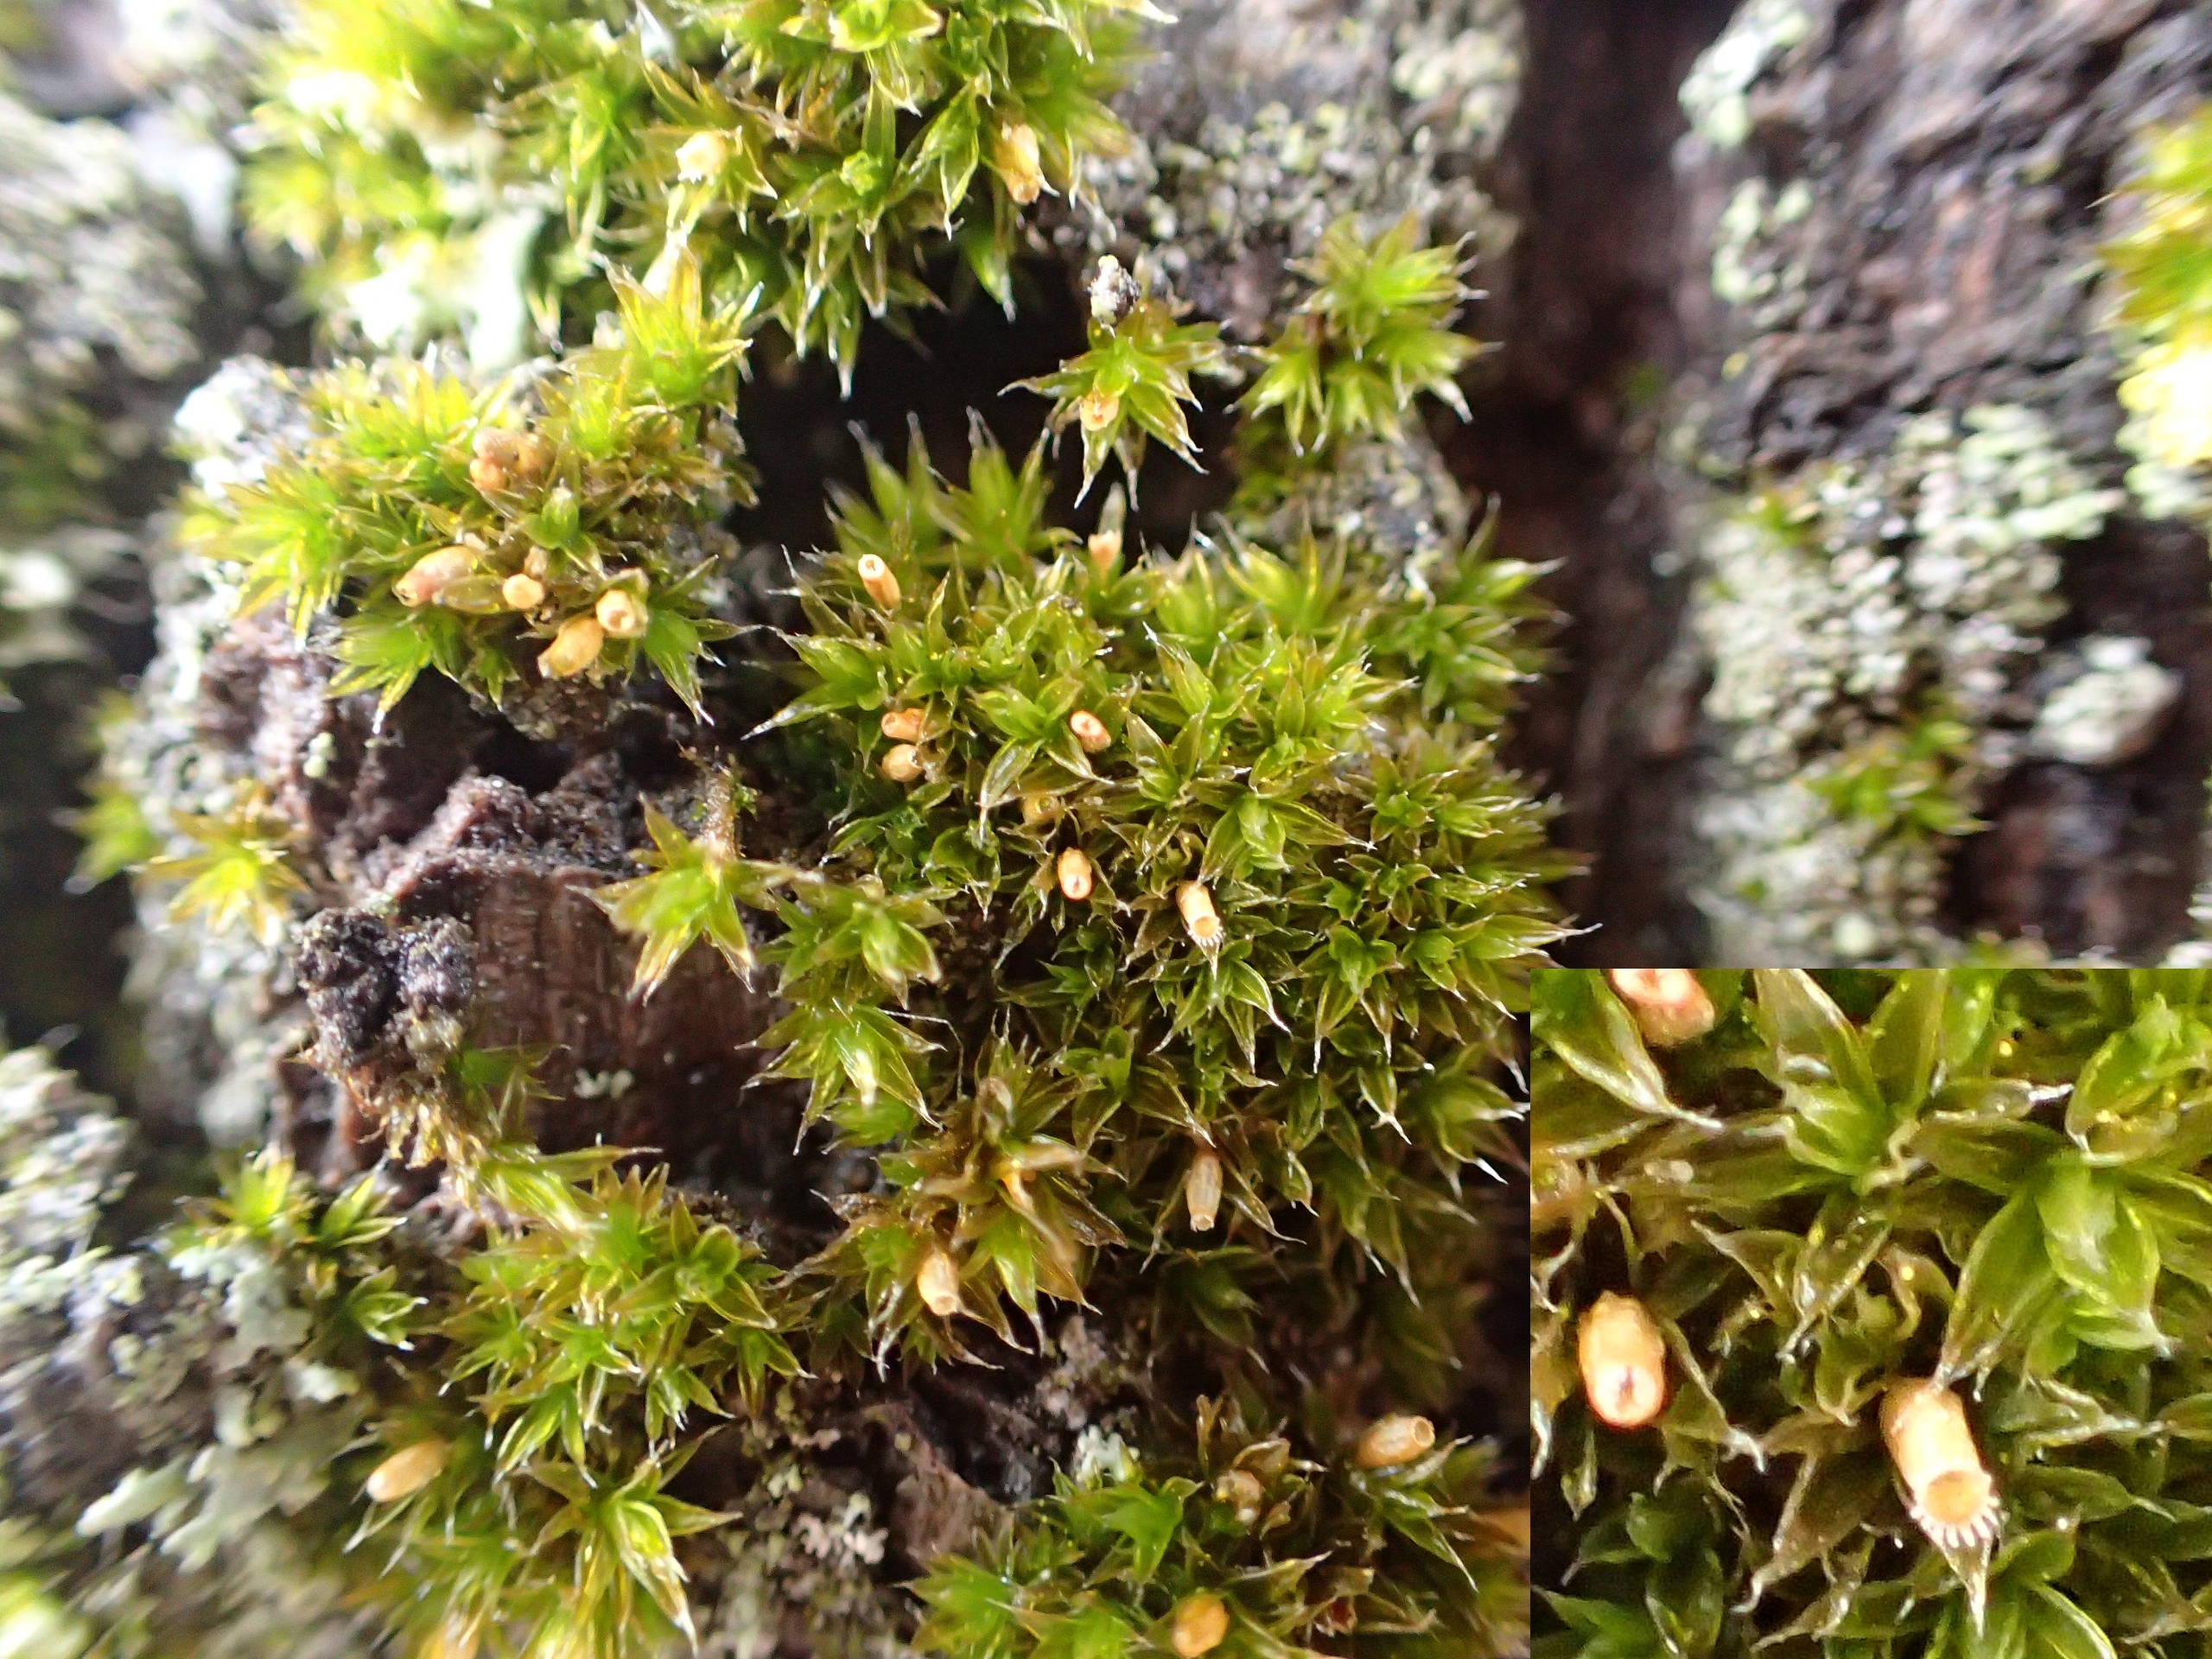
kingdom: Plantae
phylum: Bryophyta
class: Bryopsida
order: Orthotrichales
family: Orthotrichaceae
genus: Orthotrichum
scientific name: Orthotrichum diaphanum
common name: Hårspidset furehætte
